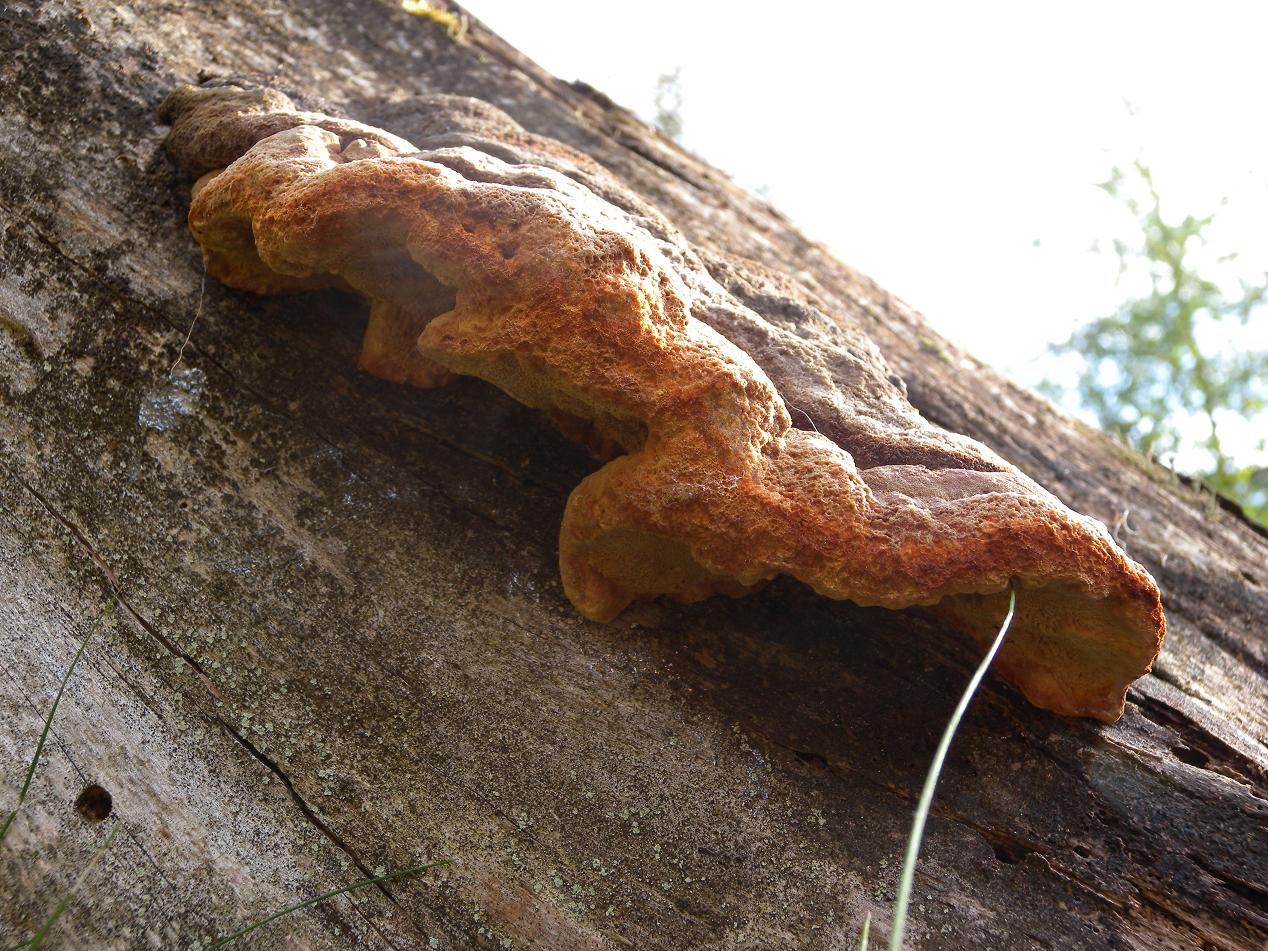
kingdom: Fungi
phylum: Basidiomycota
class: Agaricomycetes
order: Gloeophyllales
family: Gloeophyllaceae
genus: Gloeophyllum
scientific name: Gloeophyllum odoratum
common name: duftende korkhat
